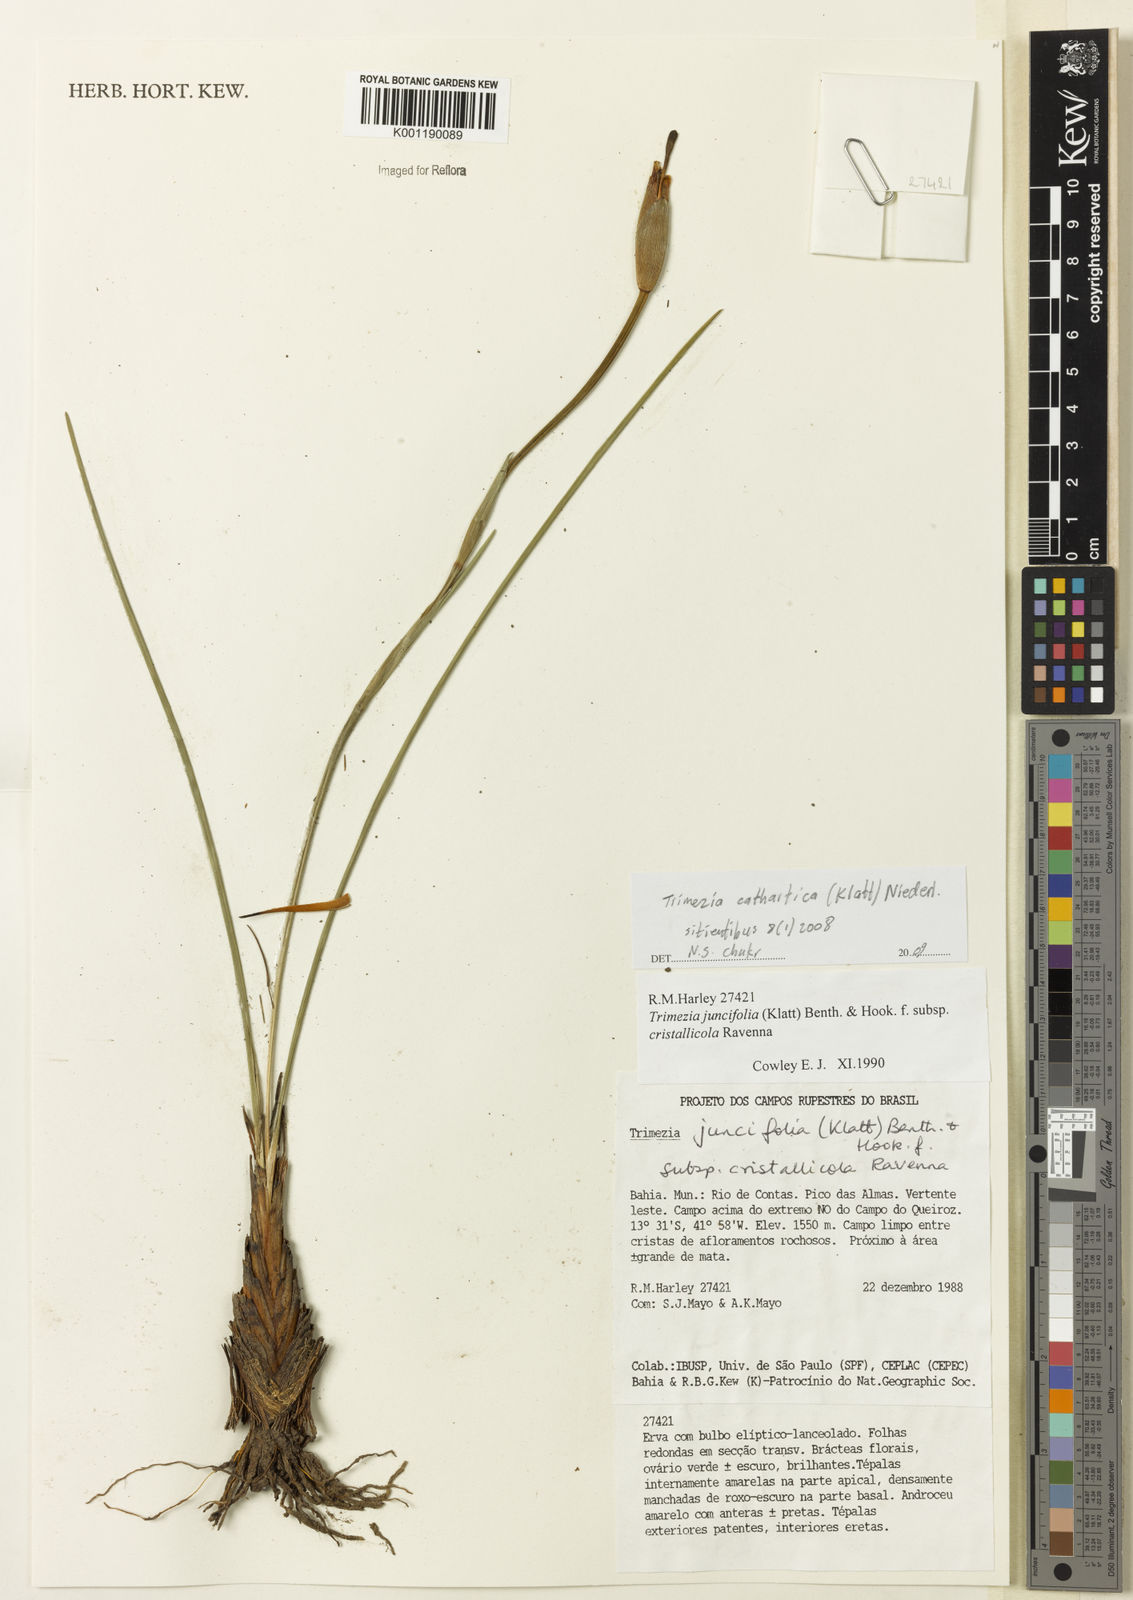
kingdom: Plantae
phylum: Tracheophyta
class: Liliopsida
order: Asparagales
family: Iridaceae
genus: Trimezia
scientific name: Trimezia cathartica
